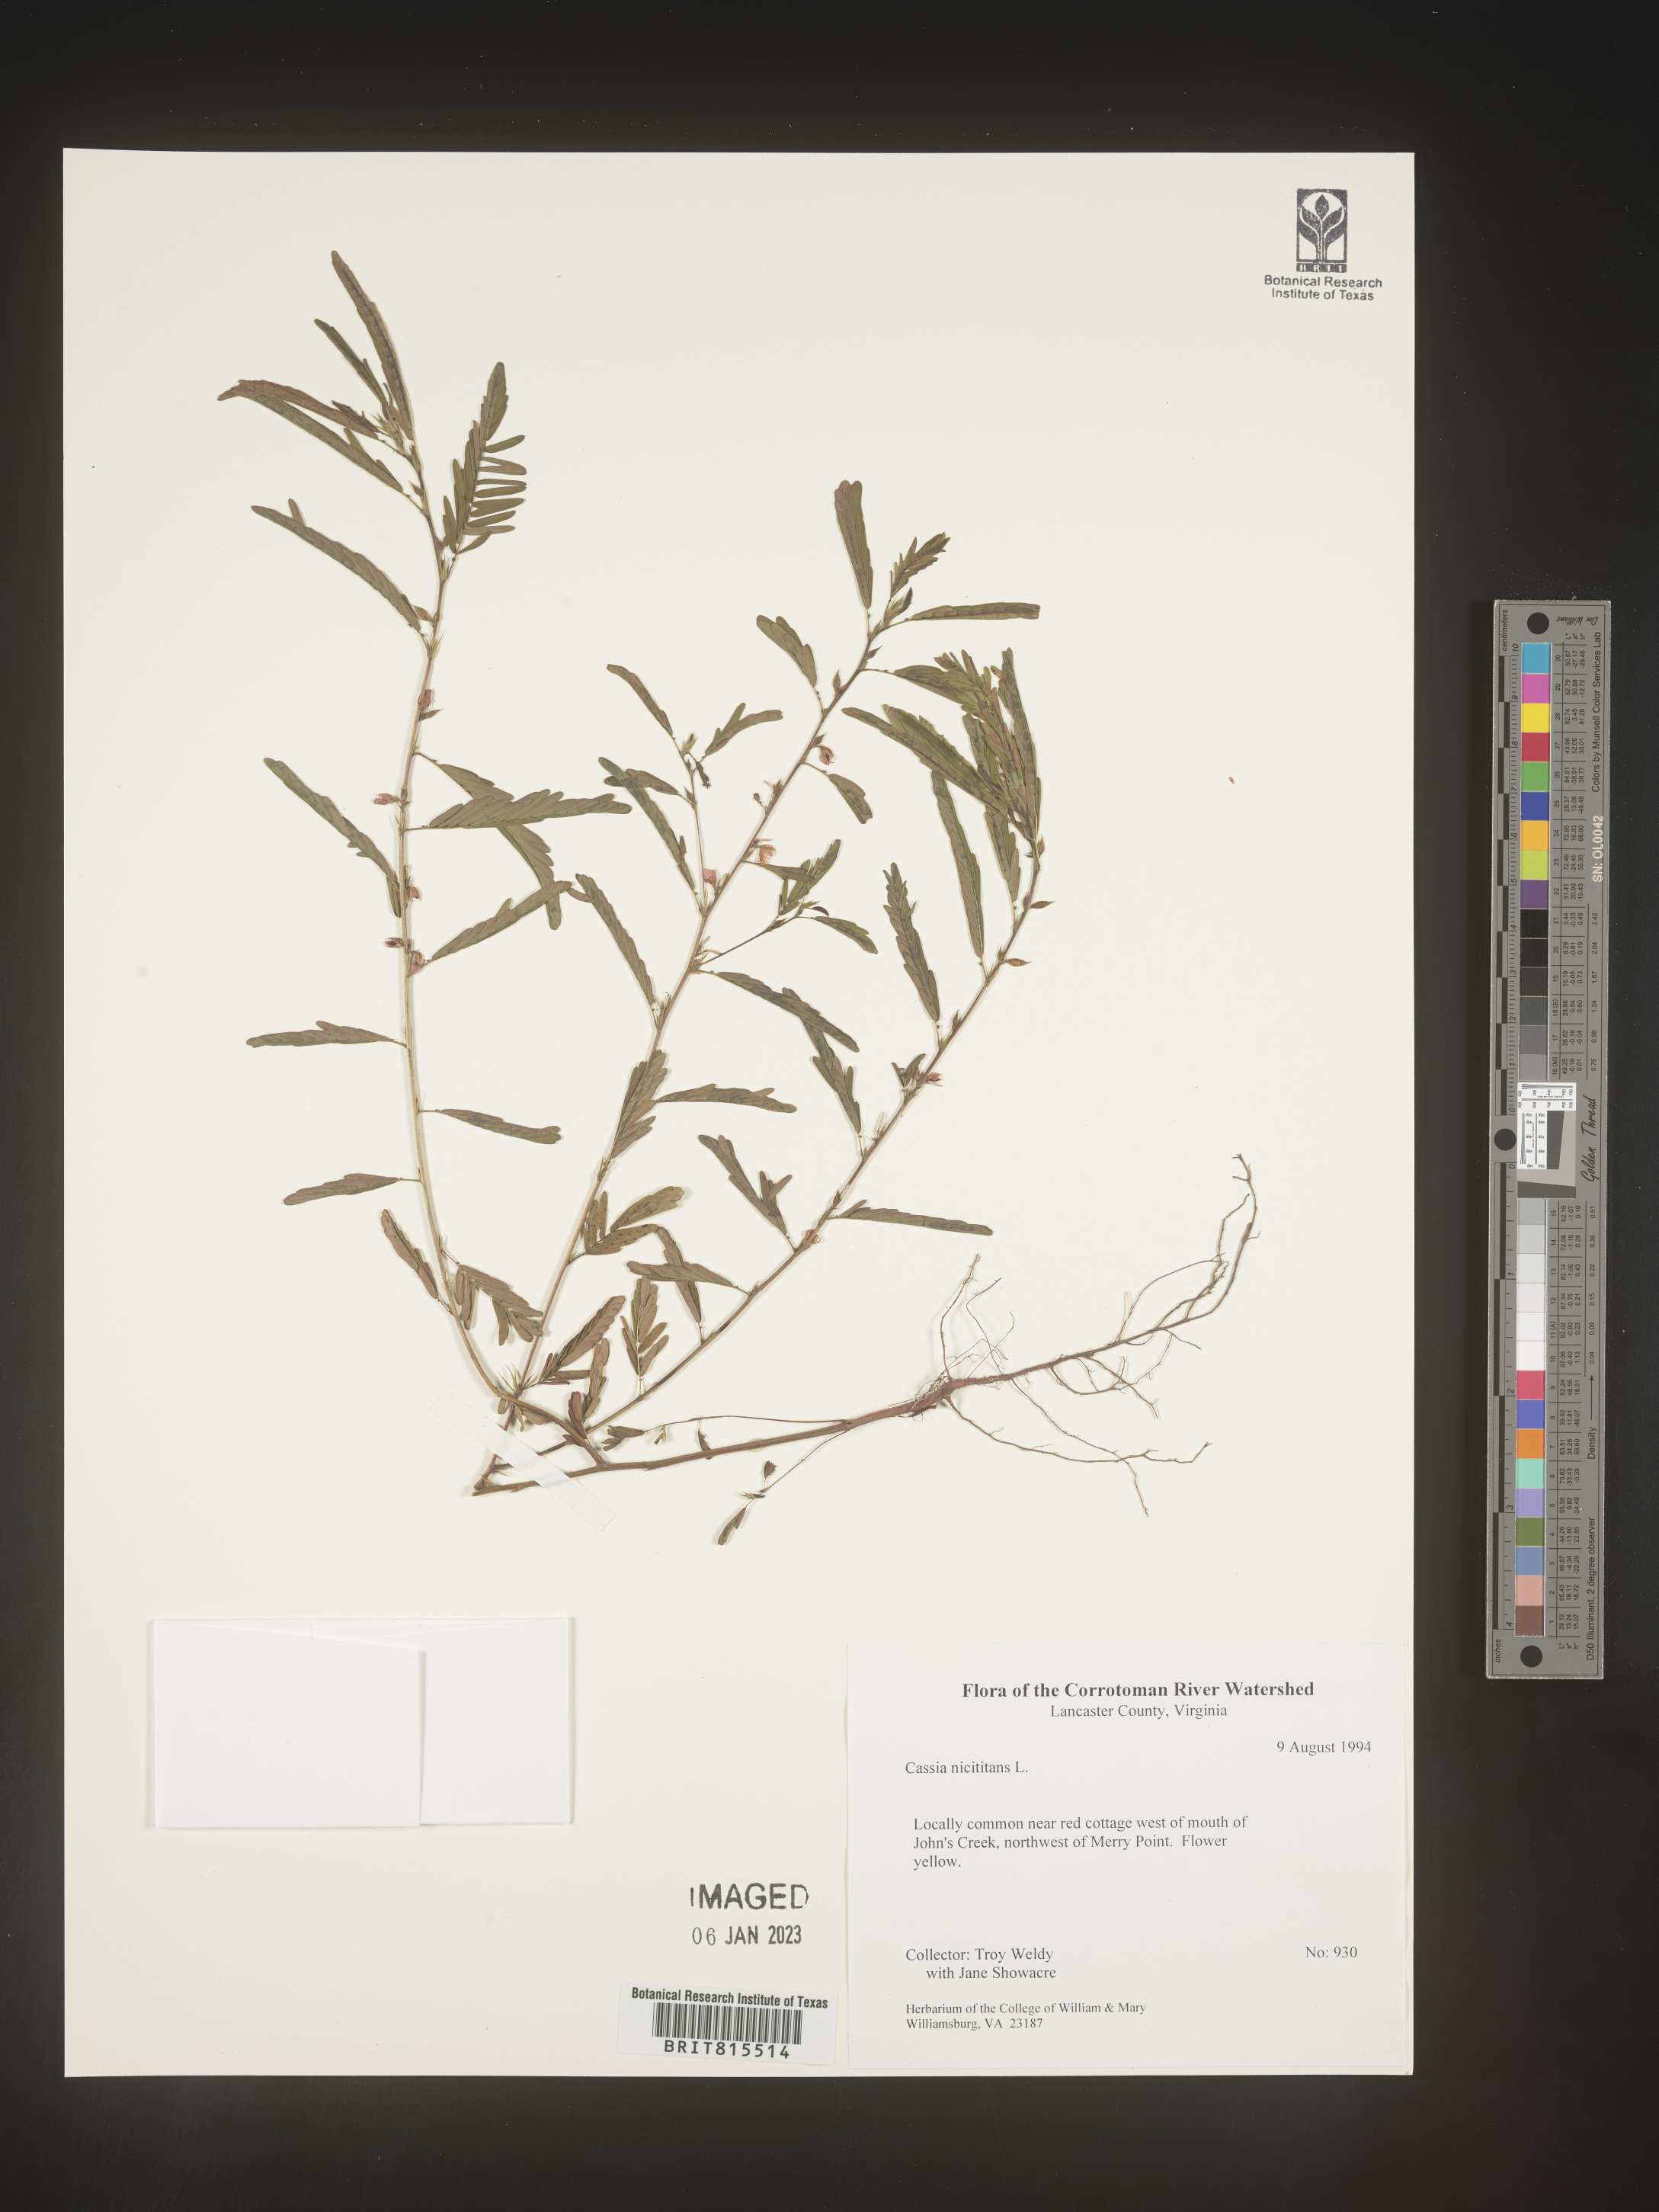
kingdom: Plantae
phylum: Tracheophyta
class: Magnoliopsida
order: Fabales
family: Fabaceae
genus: Chamaecrista
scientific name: Chamaecrista nictitans
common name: Sensitive cassia
